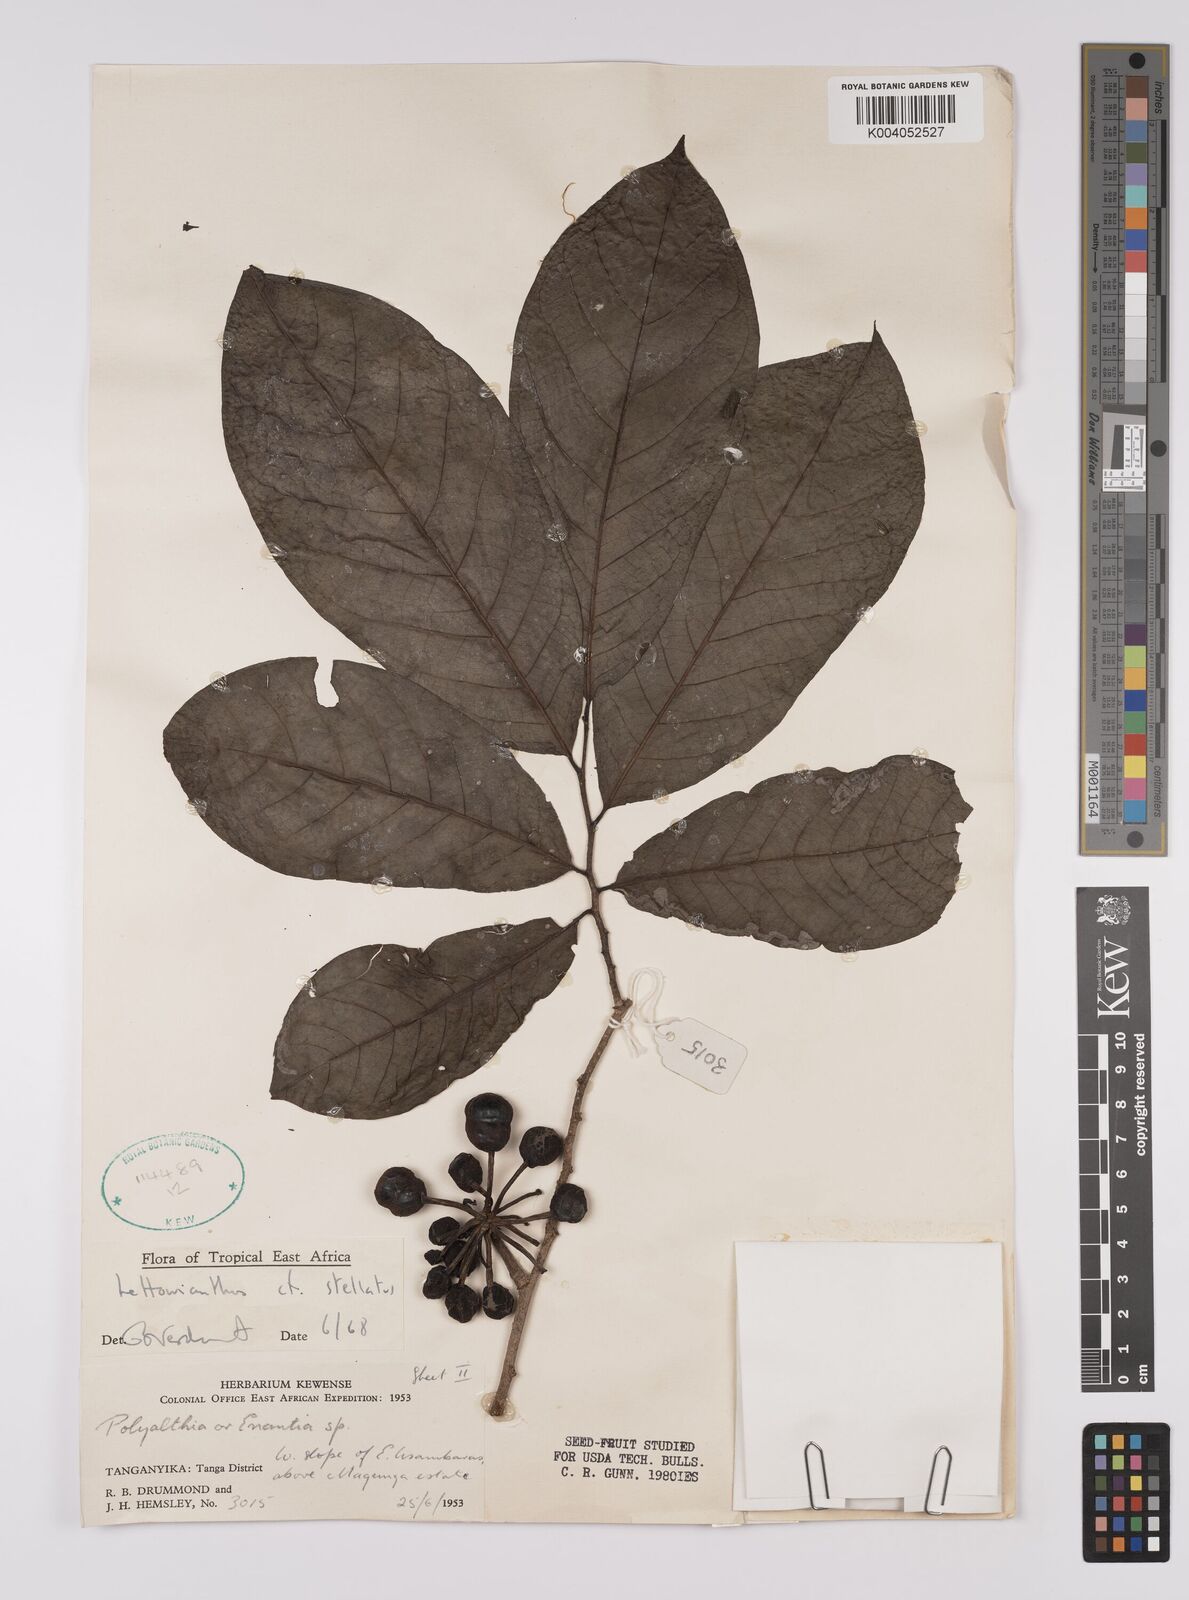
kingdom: Plantae
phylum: Tracheophyta
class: Magnoliopsida
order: Magnoliales
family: Annonaceae
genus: Lettowianthus
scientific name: Lettowianthus stellatus
